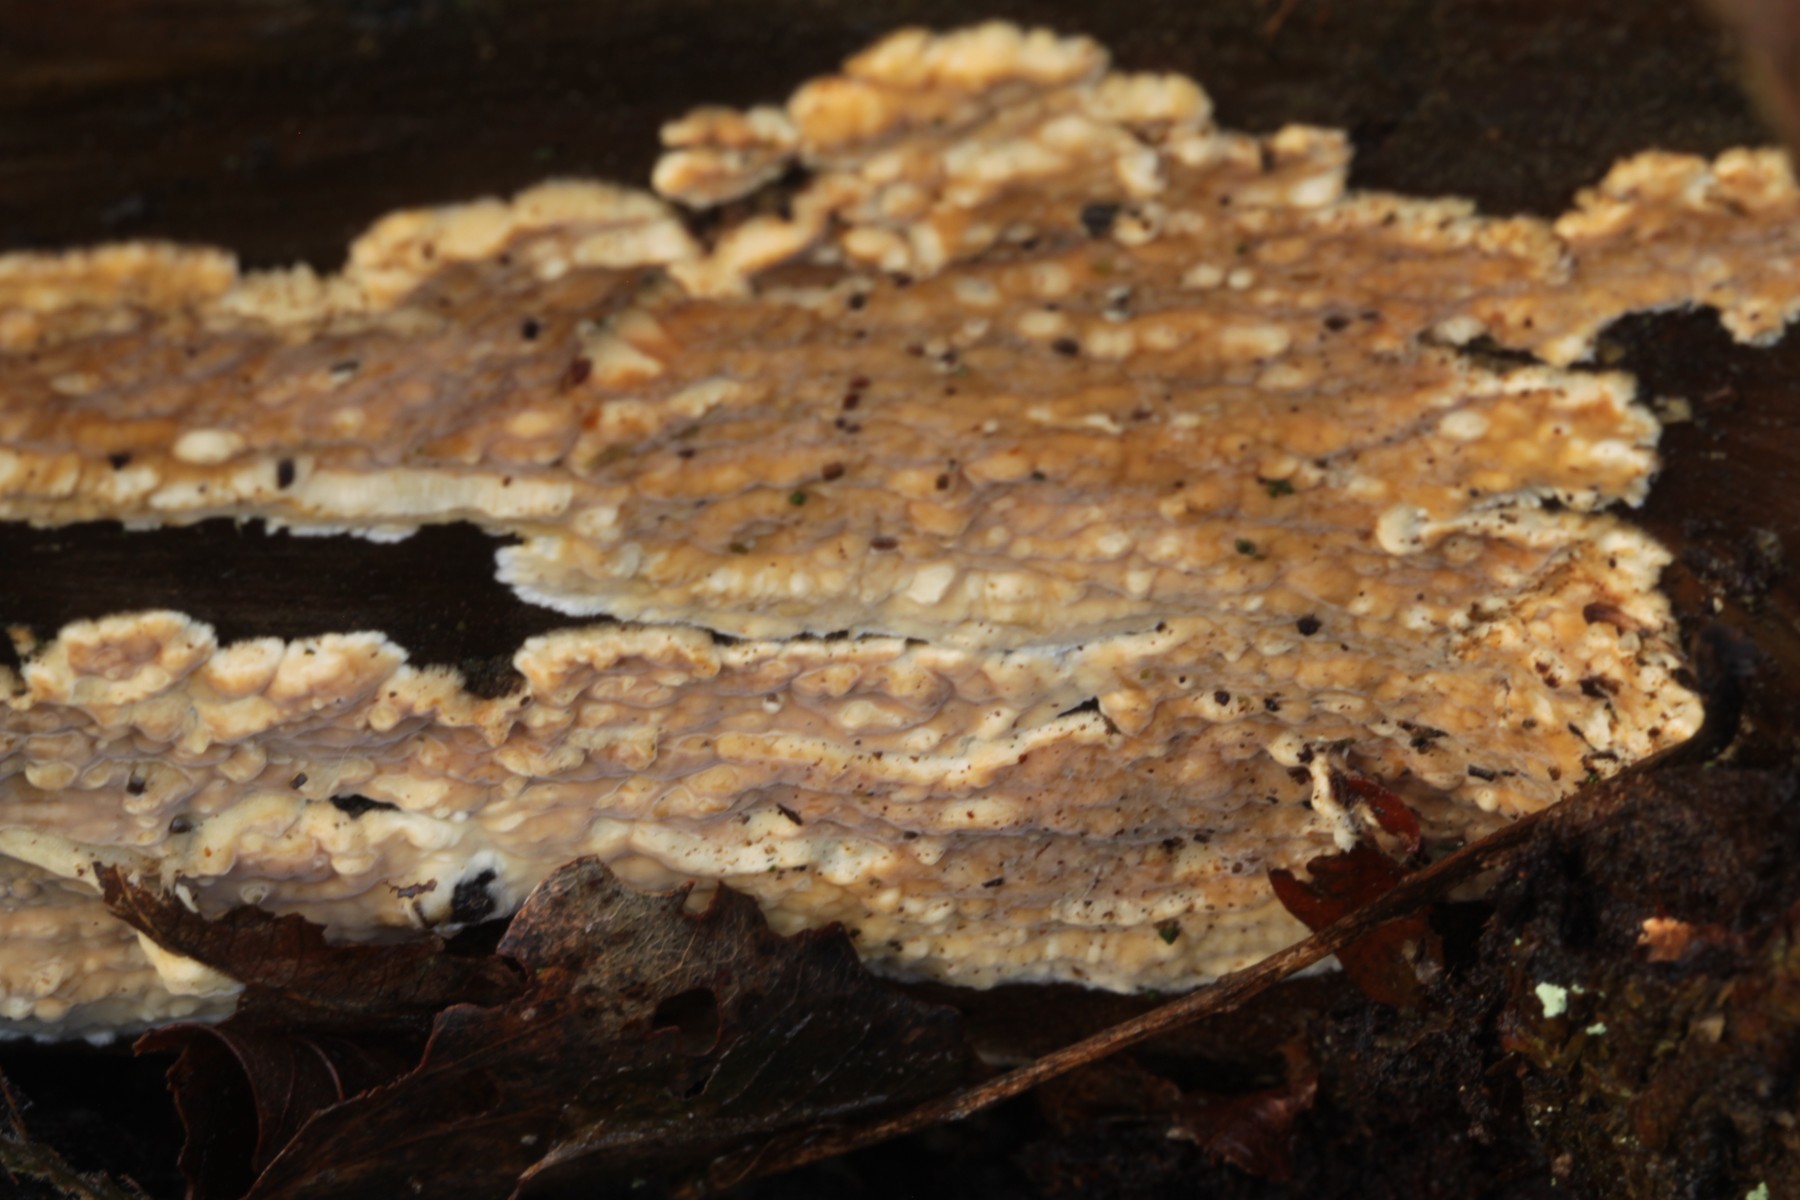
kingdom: Fungi
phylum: Basidiomycota
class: Agaricomycetes
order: Polyporales
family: Dacryobolaceae
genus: Dacryobolus
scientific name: Dacryobolus karstenii
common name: glat vulkanskorpe
